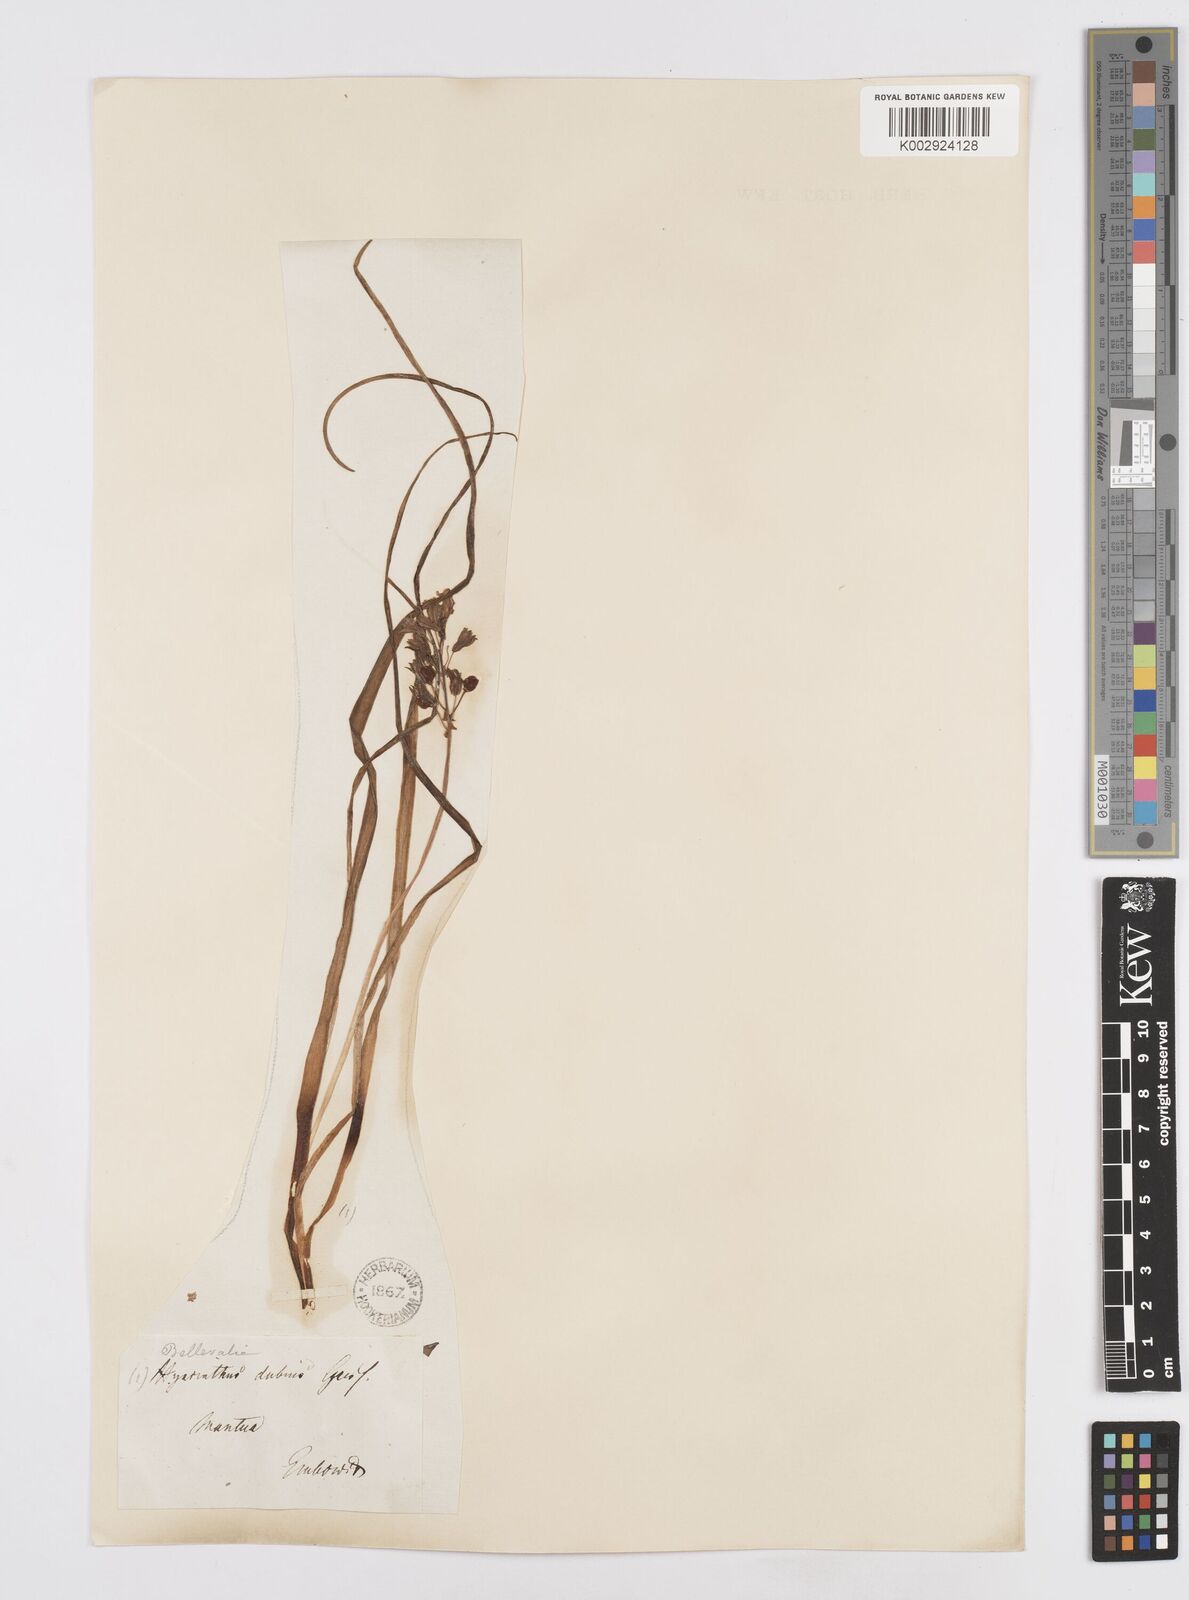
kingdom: Plantae
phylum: Tracheophyta
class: Liliopsida
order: Asparagales
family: Asparagaceae
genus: Bellevalia
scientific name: Bellevalia
